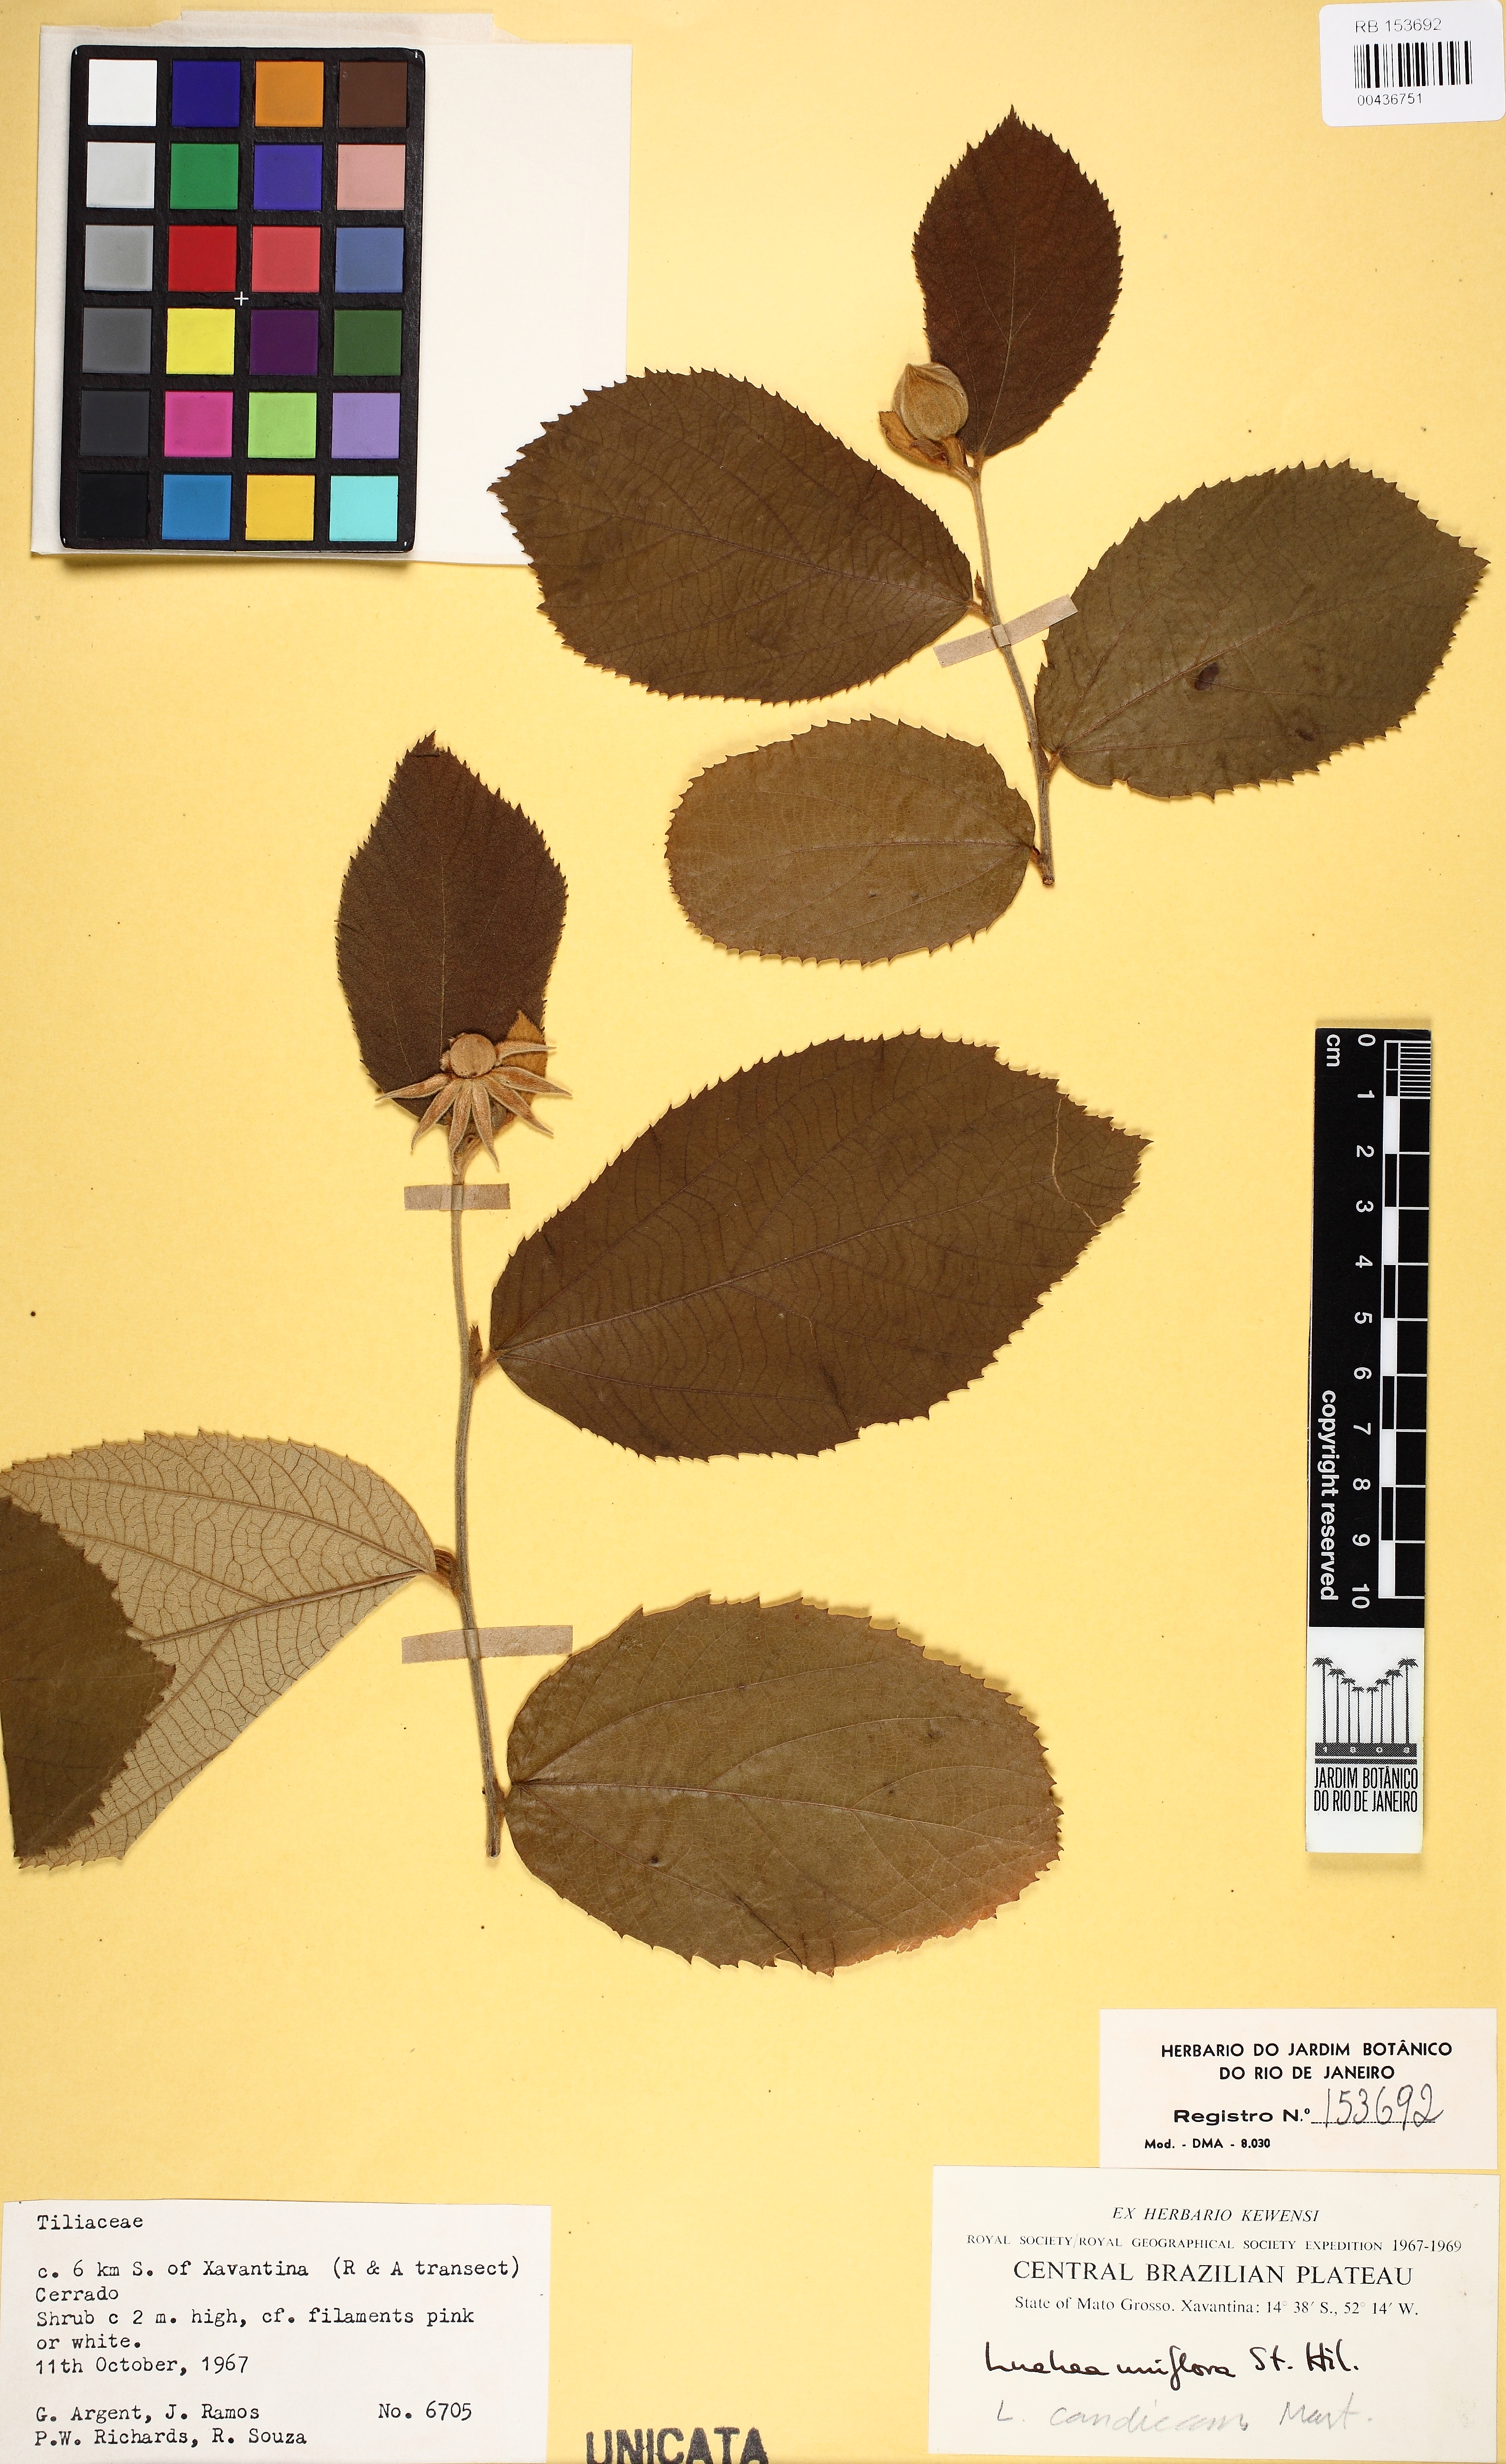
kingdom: Plantae
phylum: Tracheophyta
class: Magnoliopsida
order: Malvales
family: Malvaceae
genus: Luehea
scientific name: Luehea candicans
